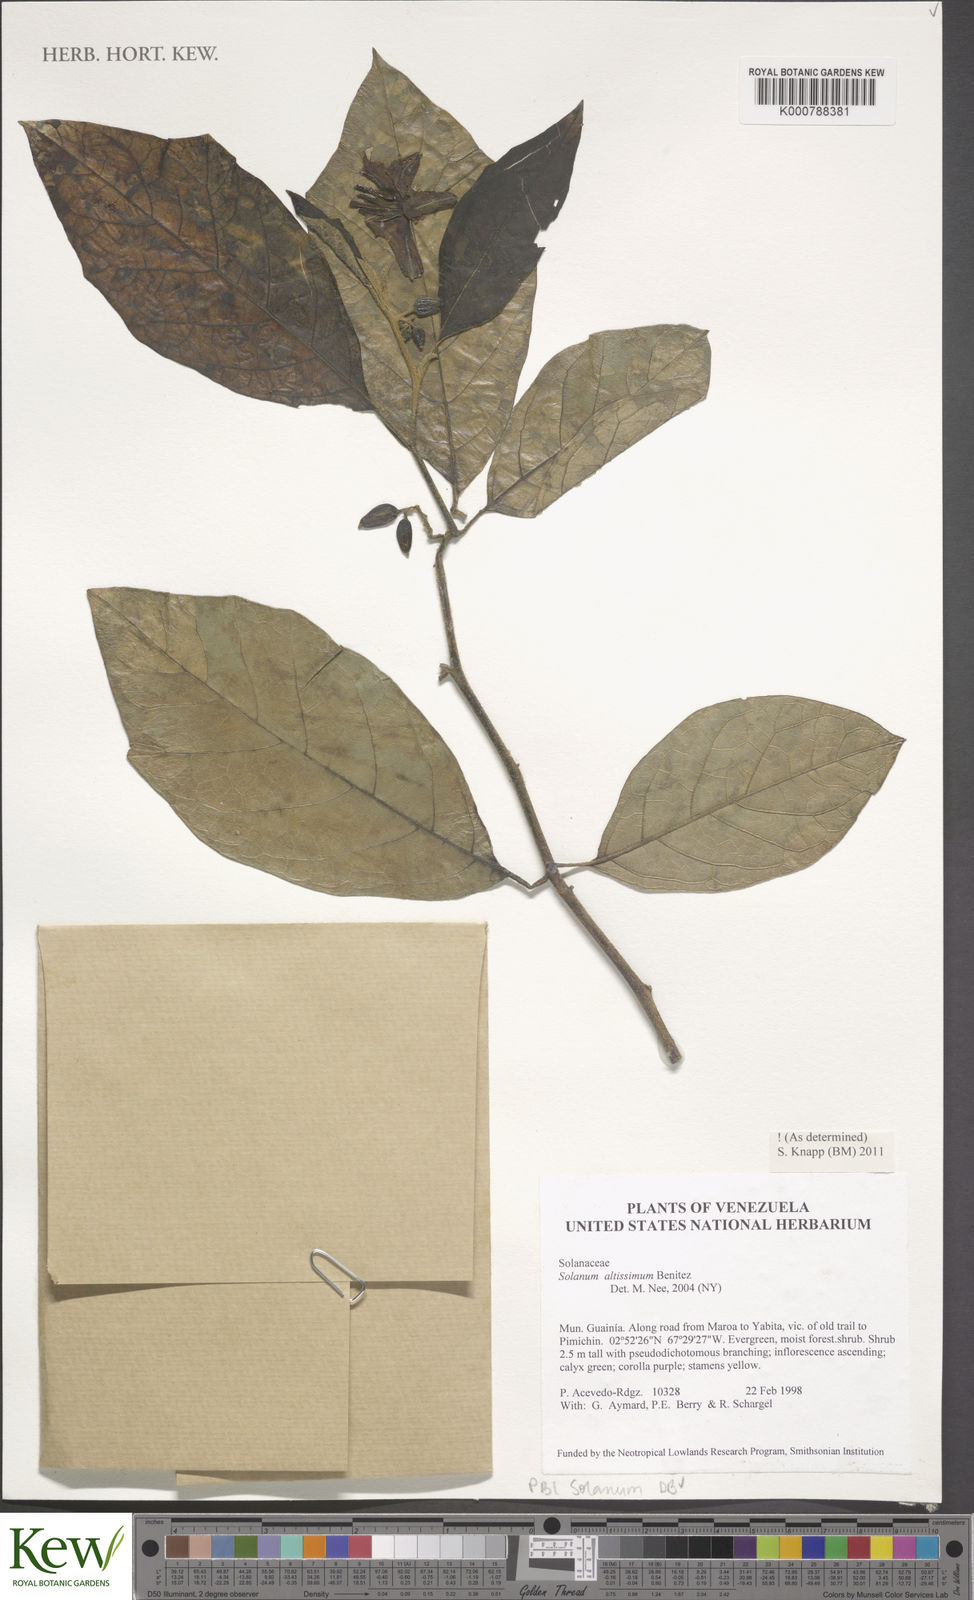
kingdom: Plantae
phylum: Tracheophyta
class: Magnoliopsida
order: Solanales
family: Solanaceae
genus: Solanum
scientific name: Solanum
